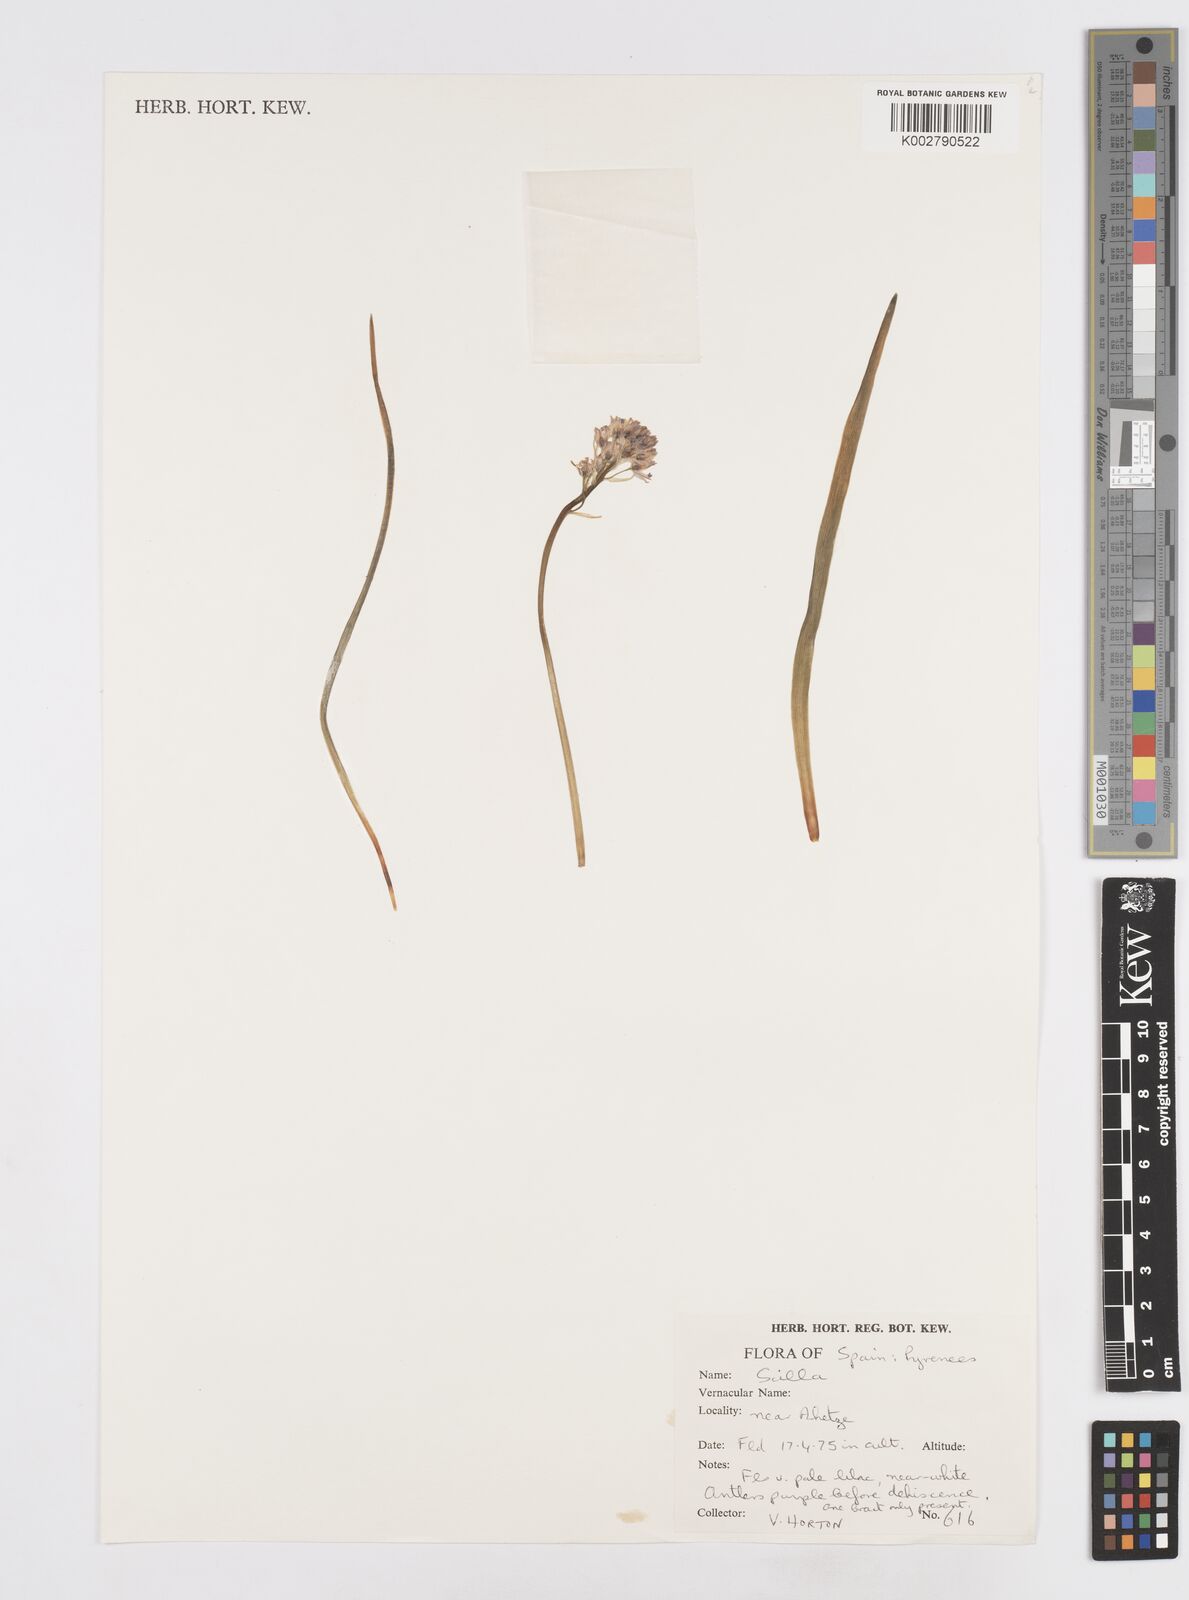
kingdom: Plantae
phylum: Tracheophyta
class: Liliopsida
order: Asparagales
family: Asparagaceae
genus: Scilla
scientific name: Scilla
